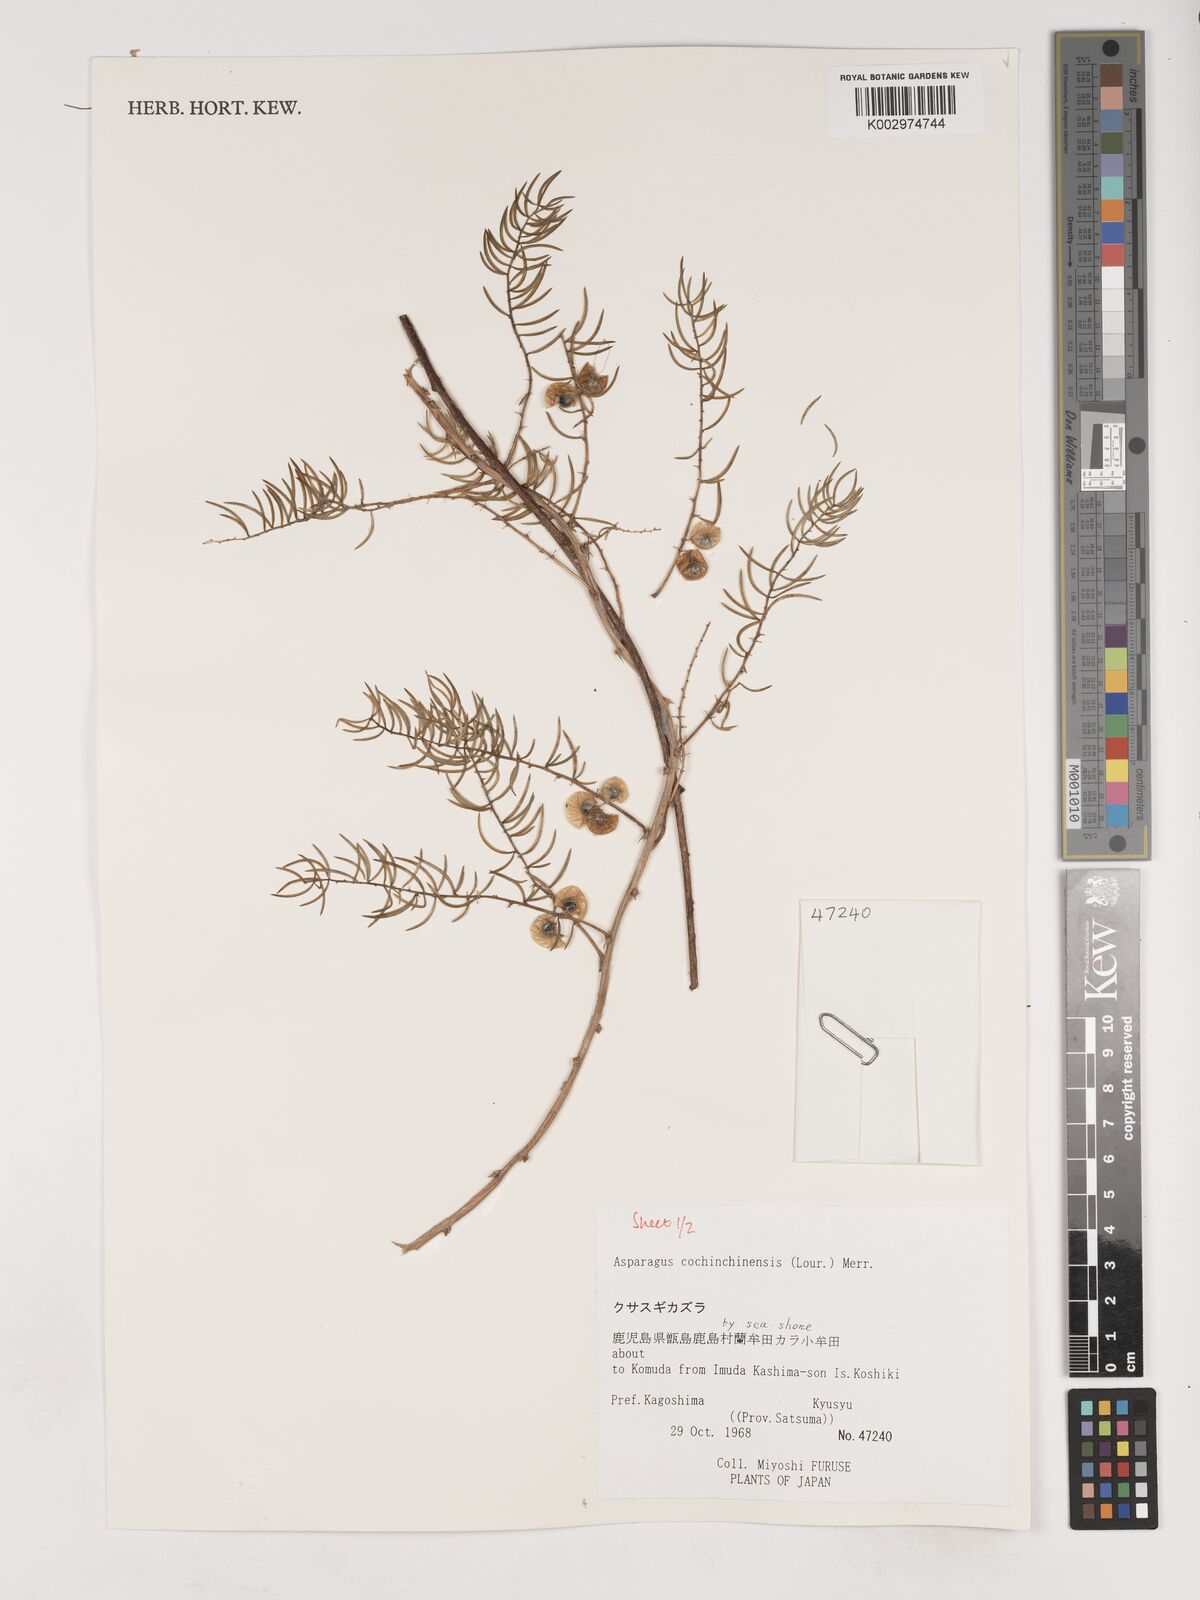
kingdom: Plantae
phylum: Tracheophyta
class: Liliopsida
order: Asparagales
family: Asparagaceae
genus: Asparagus
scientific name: Asparagus cochinchinensis
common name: Chinese asparagus
